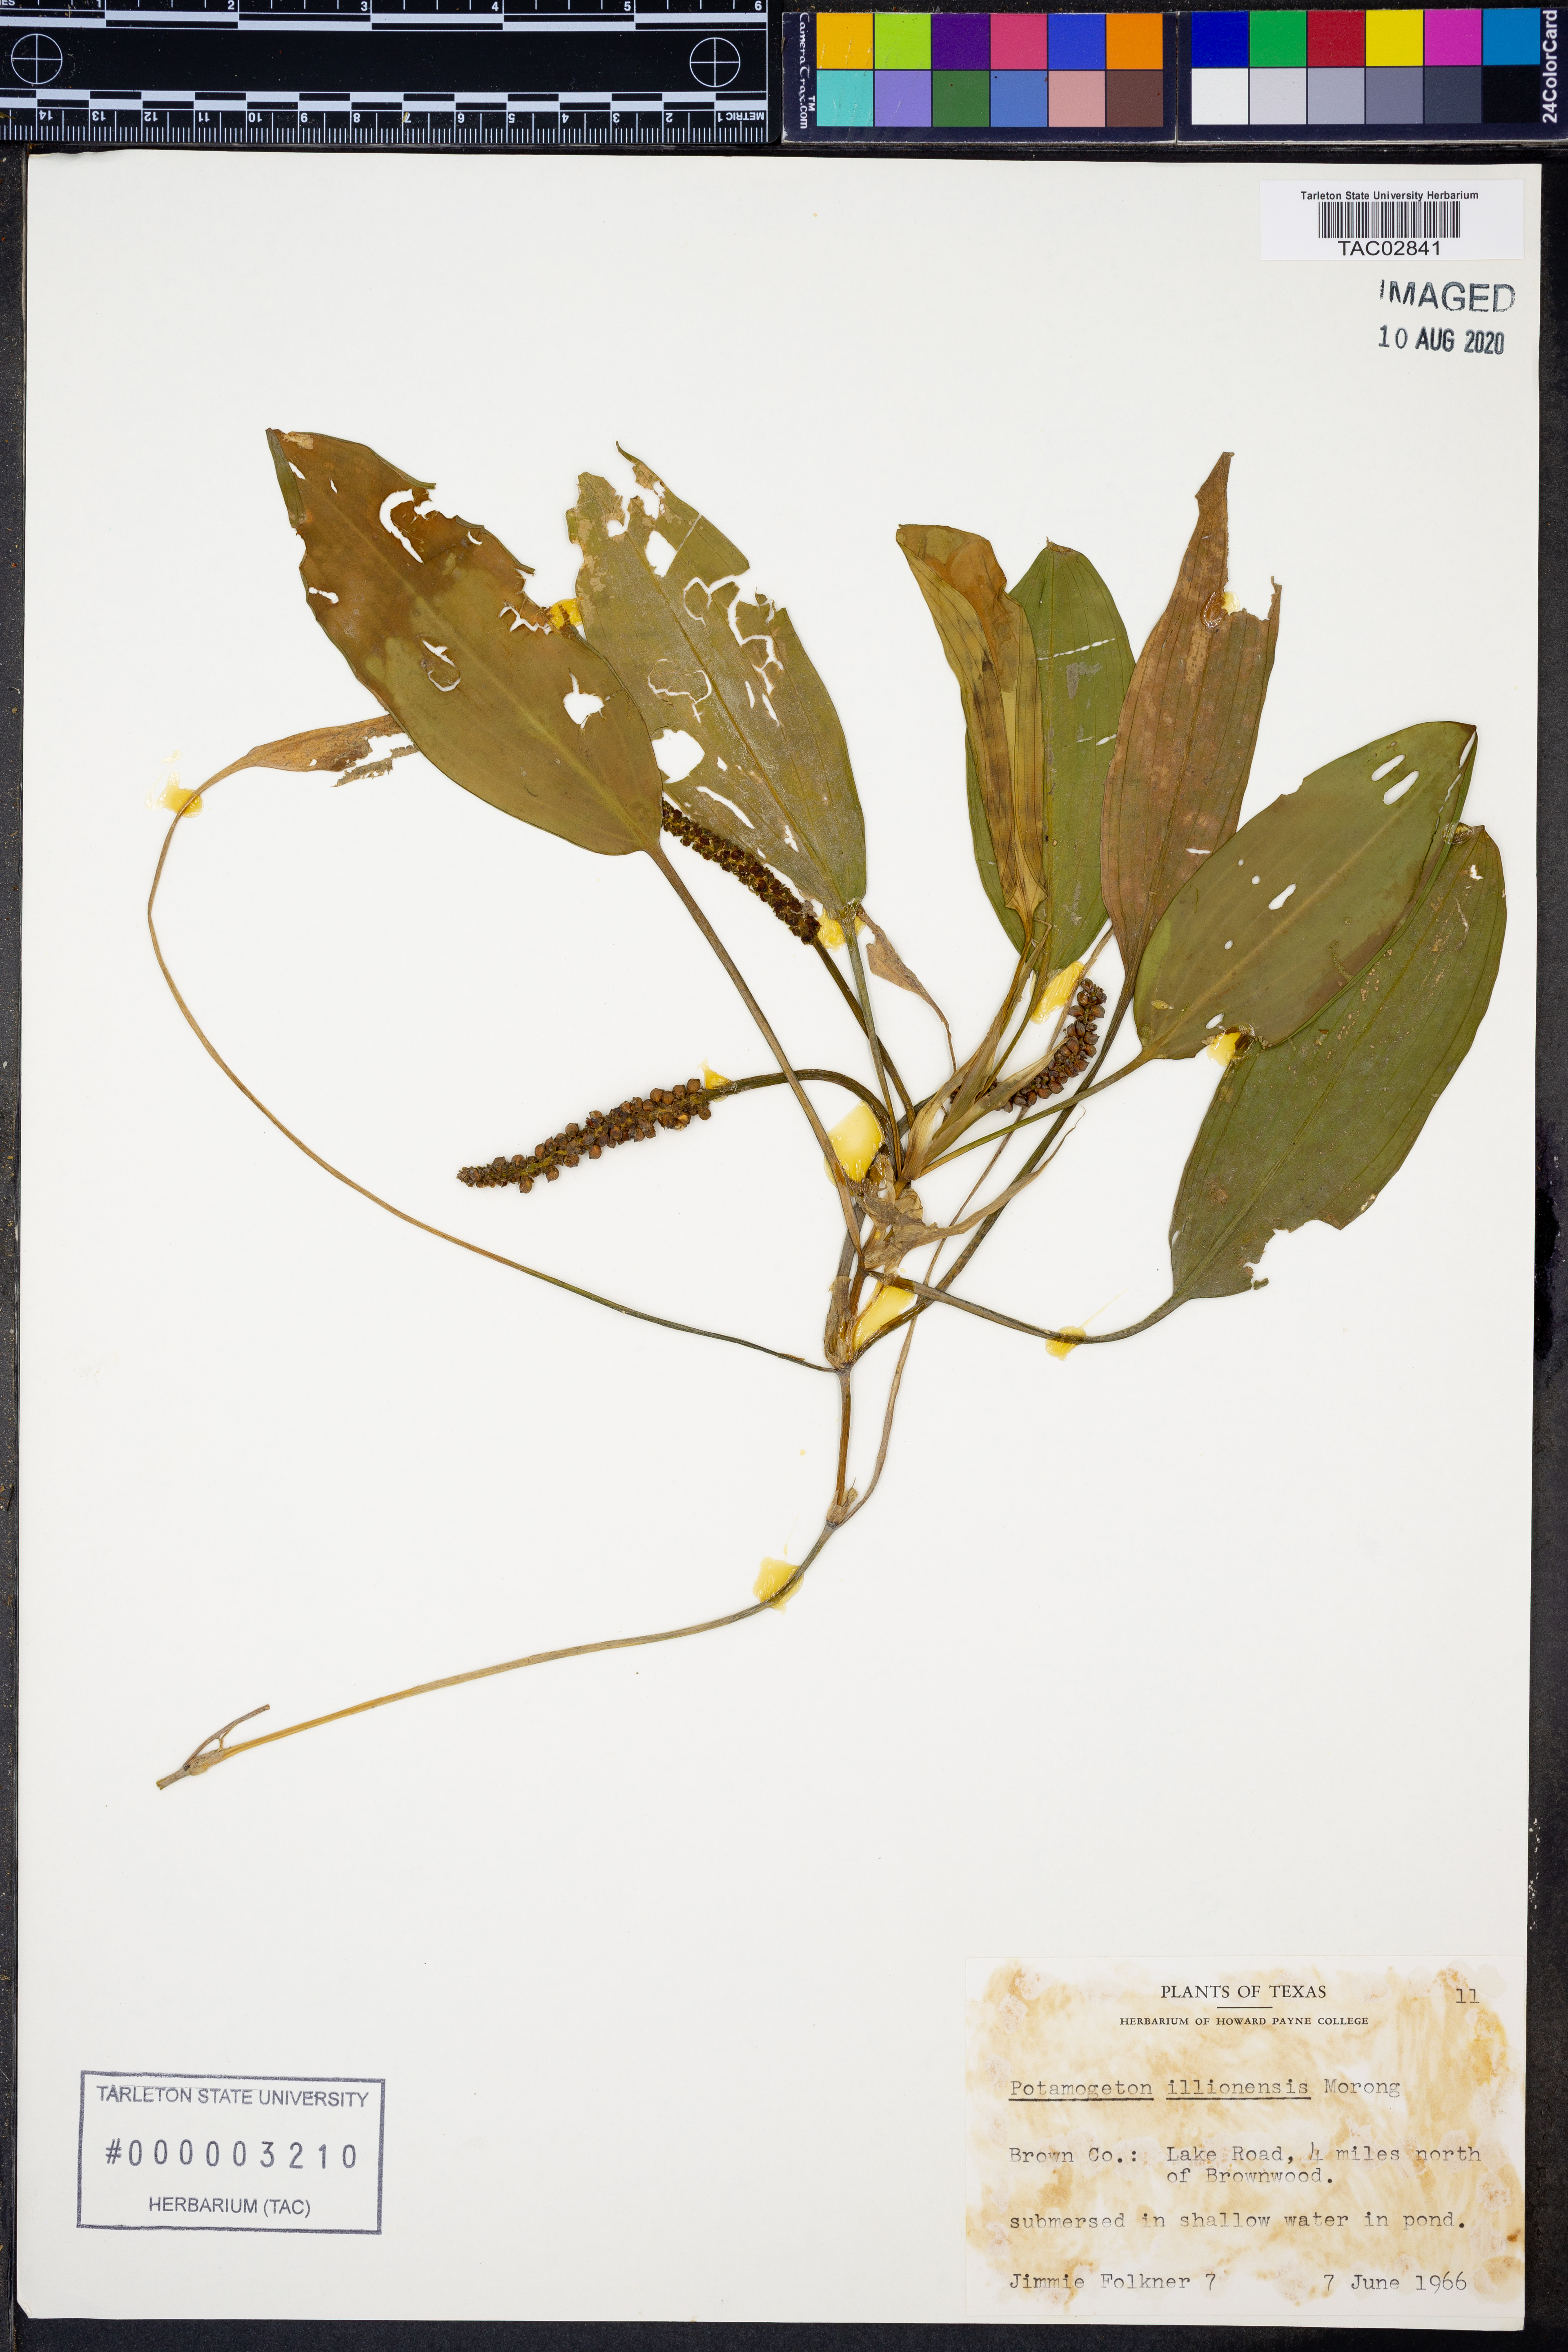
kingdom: Plantae
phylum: Tracheophyta
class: Liliopsida
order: Alismatales
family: Potamogetonaceae
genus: Potamogeton
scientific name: Potamogeton illinoensis
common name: Illinois pondweed
